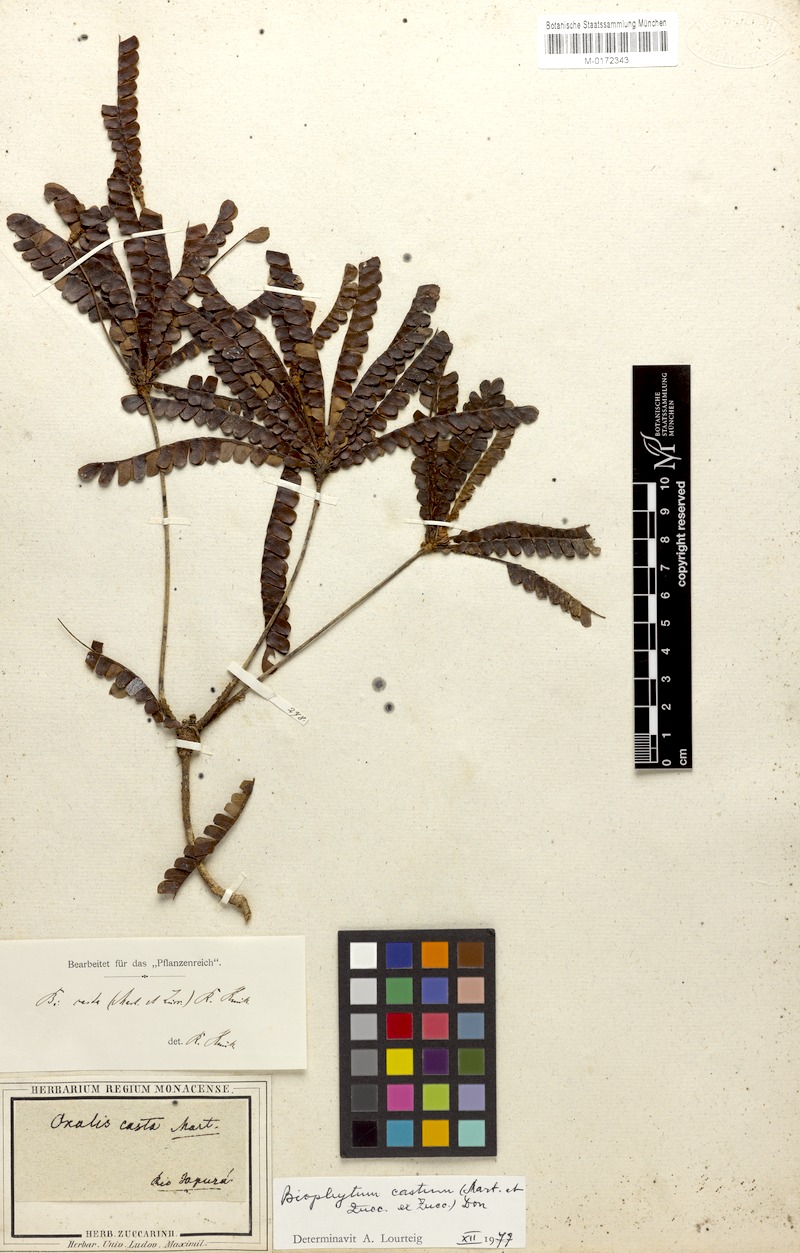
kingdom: Plantae
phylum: Tracheophyta
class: Magnoliopsida
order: Oxalidales
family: Oxalidaceae
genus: Biophytum
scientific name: Biophytum castum
